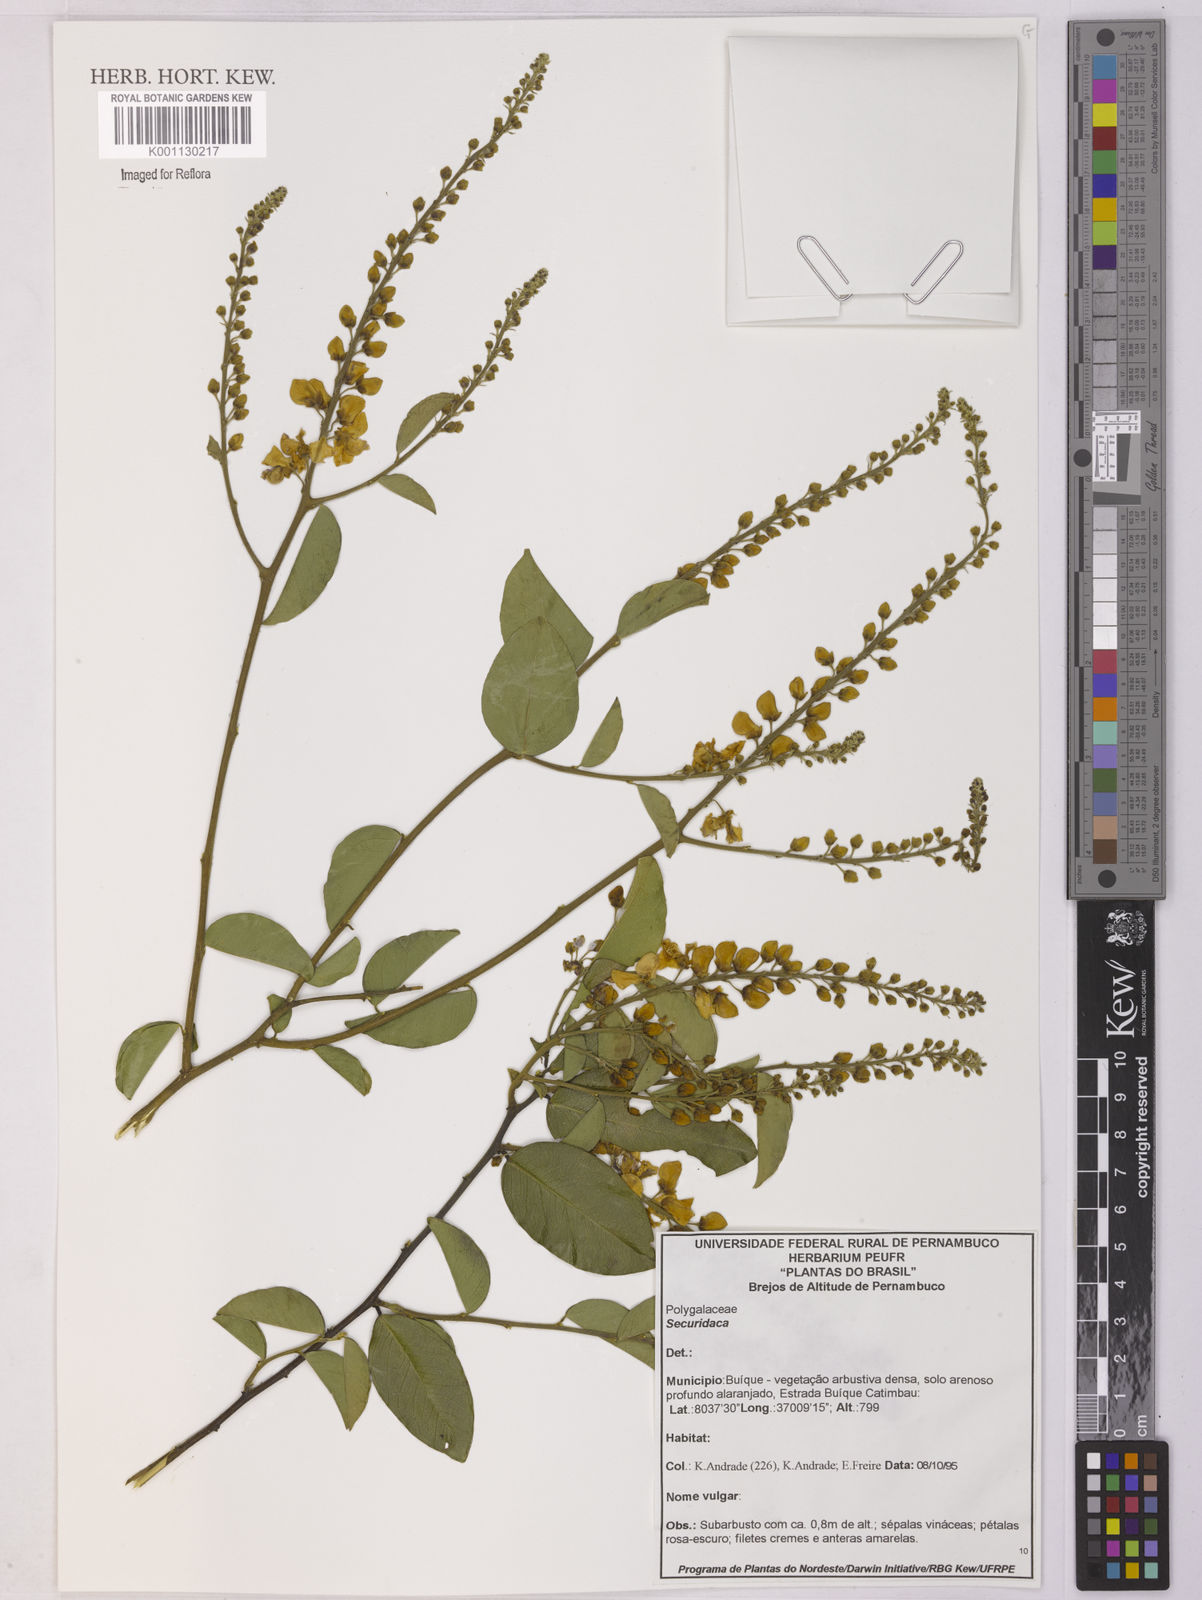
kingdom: Plantae
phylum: Tracheophyta
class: Magnoliopsida
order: Fabales
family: Polygalaceae
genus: Securidaca
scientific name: Securidaca
